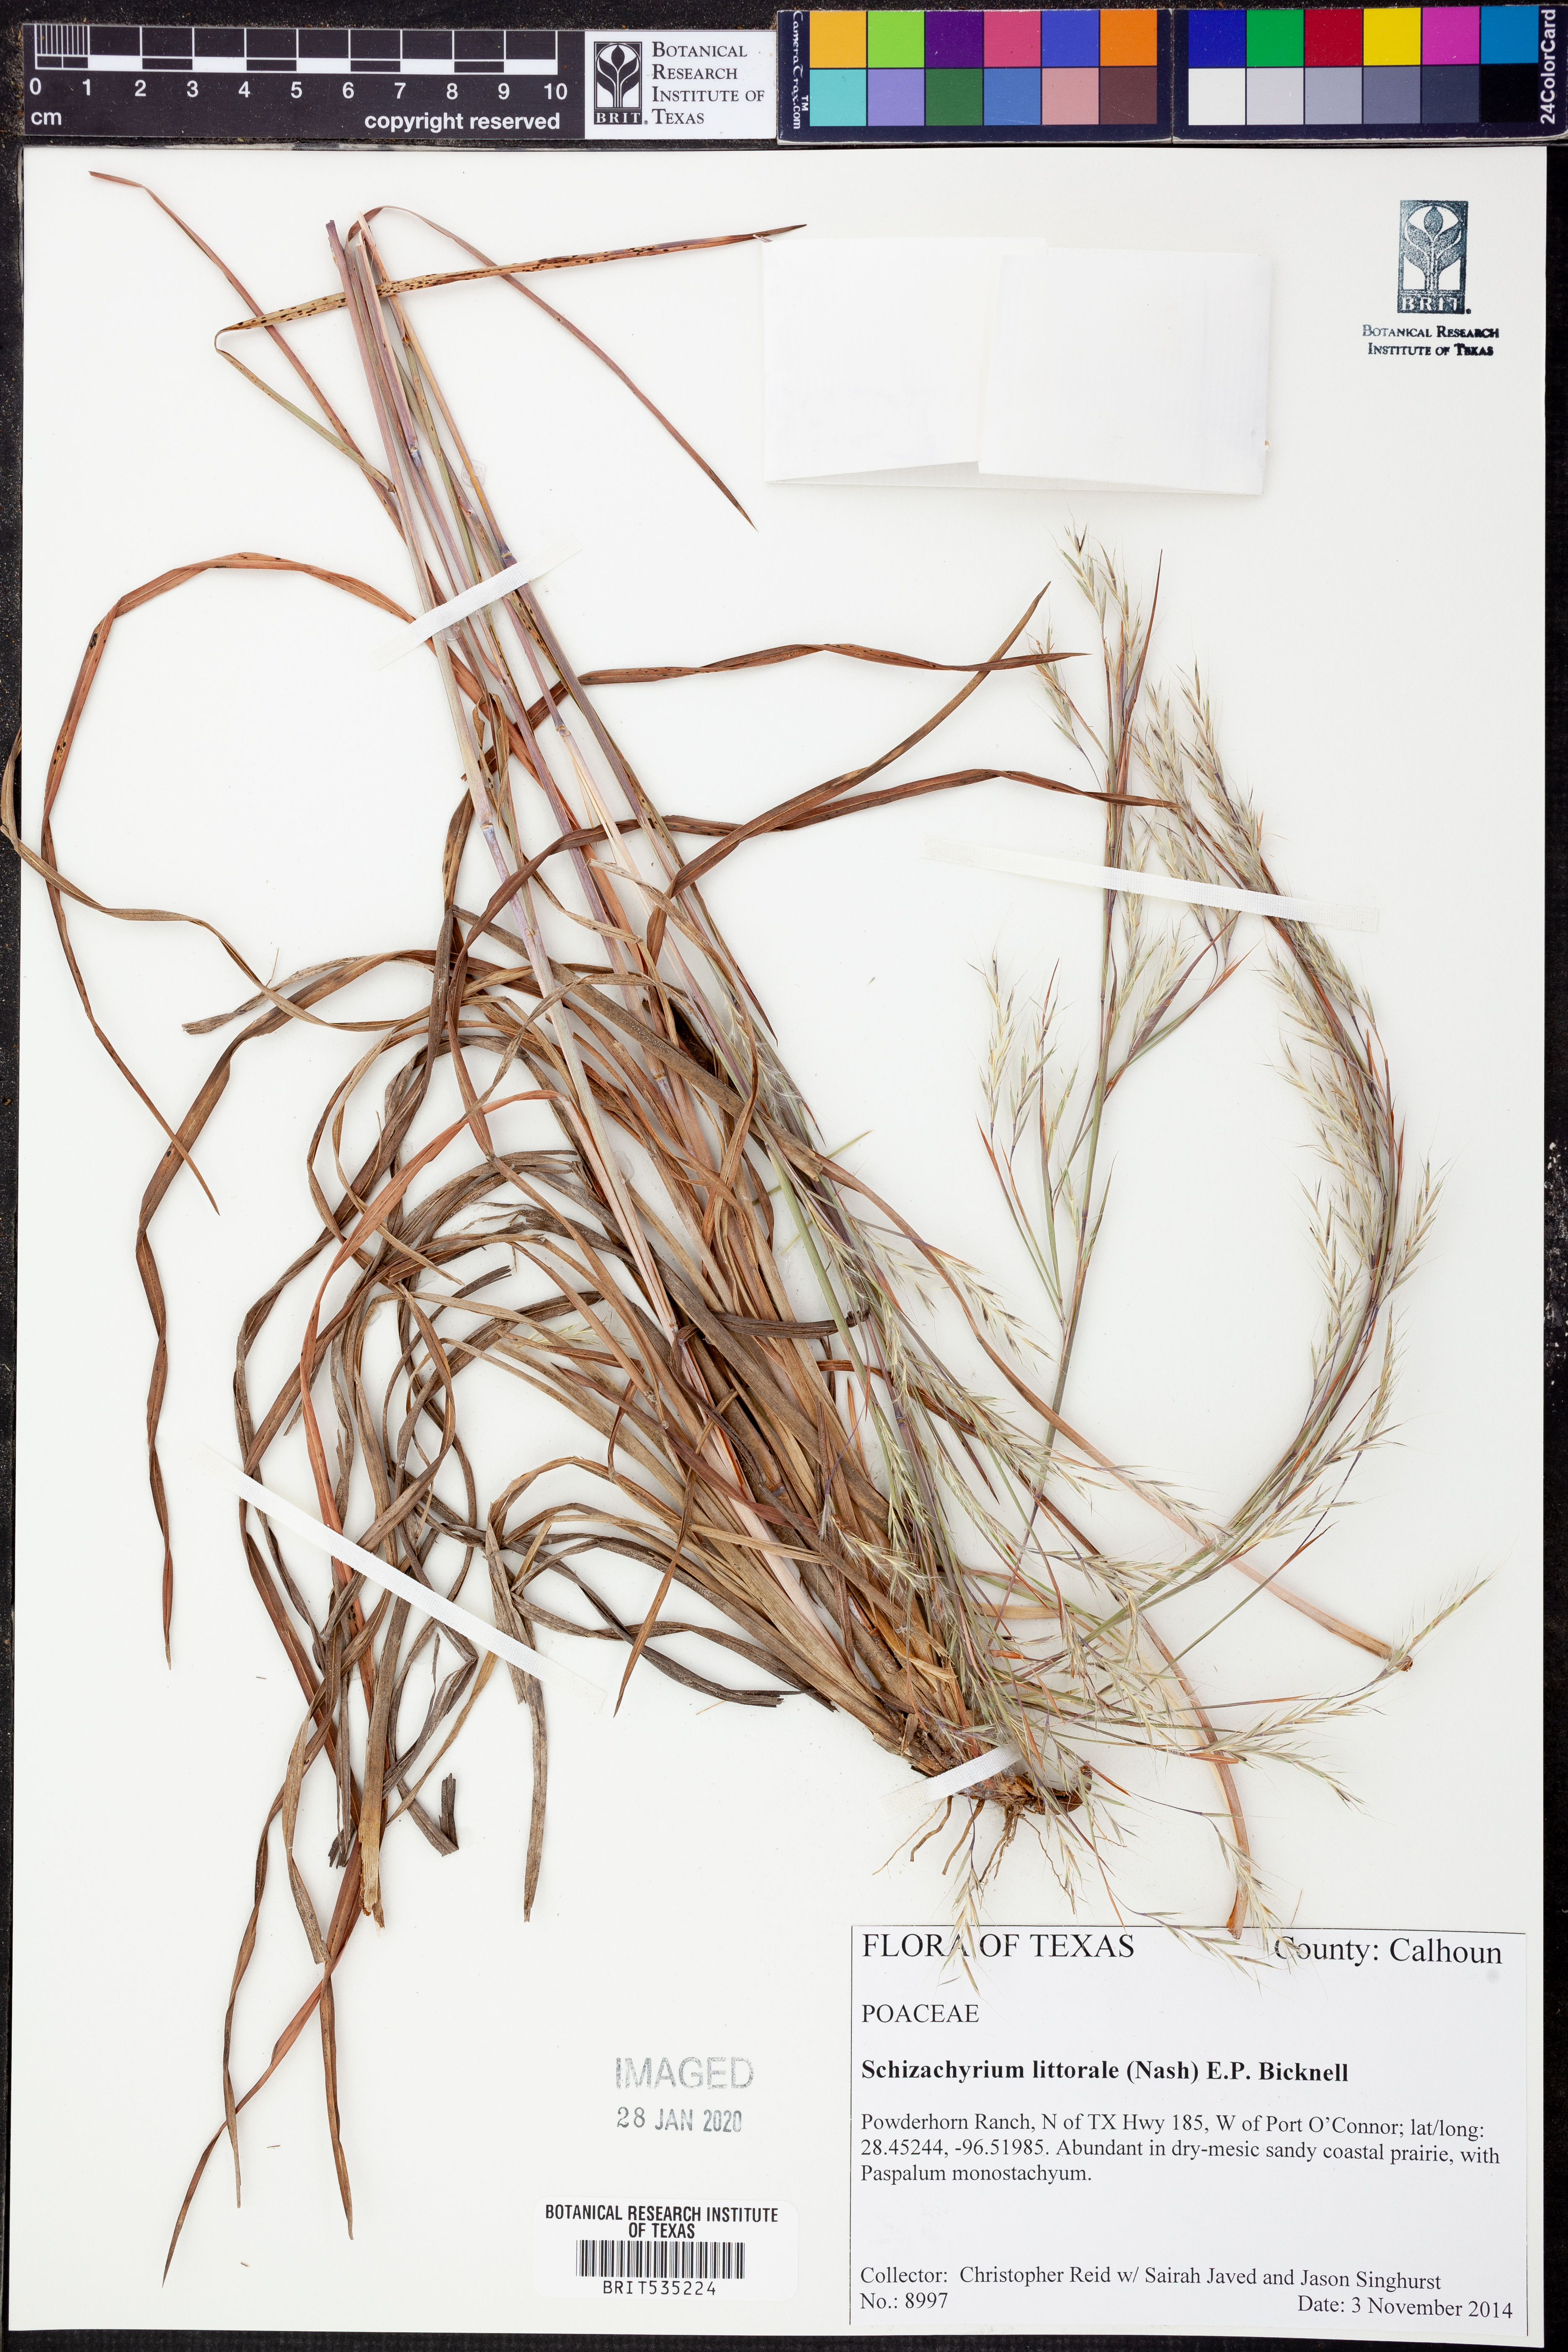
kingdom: Plantae
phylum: Tracheophyta
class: Liliopsida
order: Poales
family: Poaceae
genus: Schizachyrium
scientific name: Schizachyrium scoparium
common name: Little bluestem
